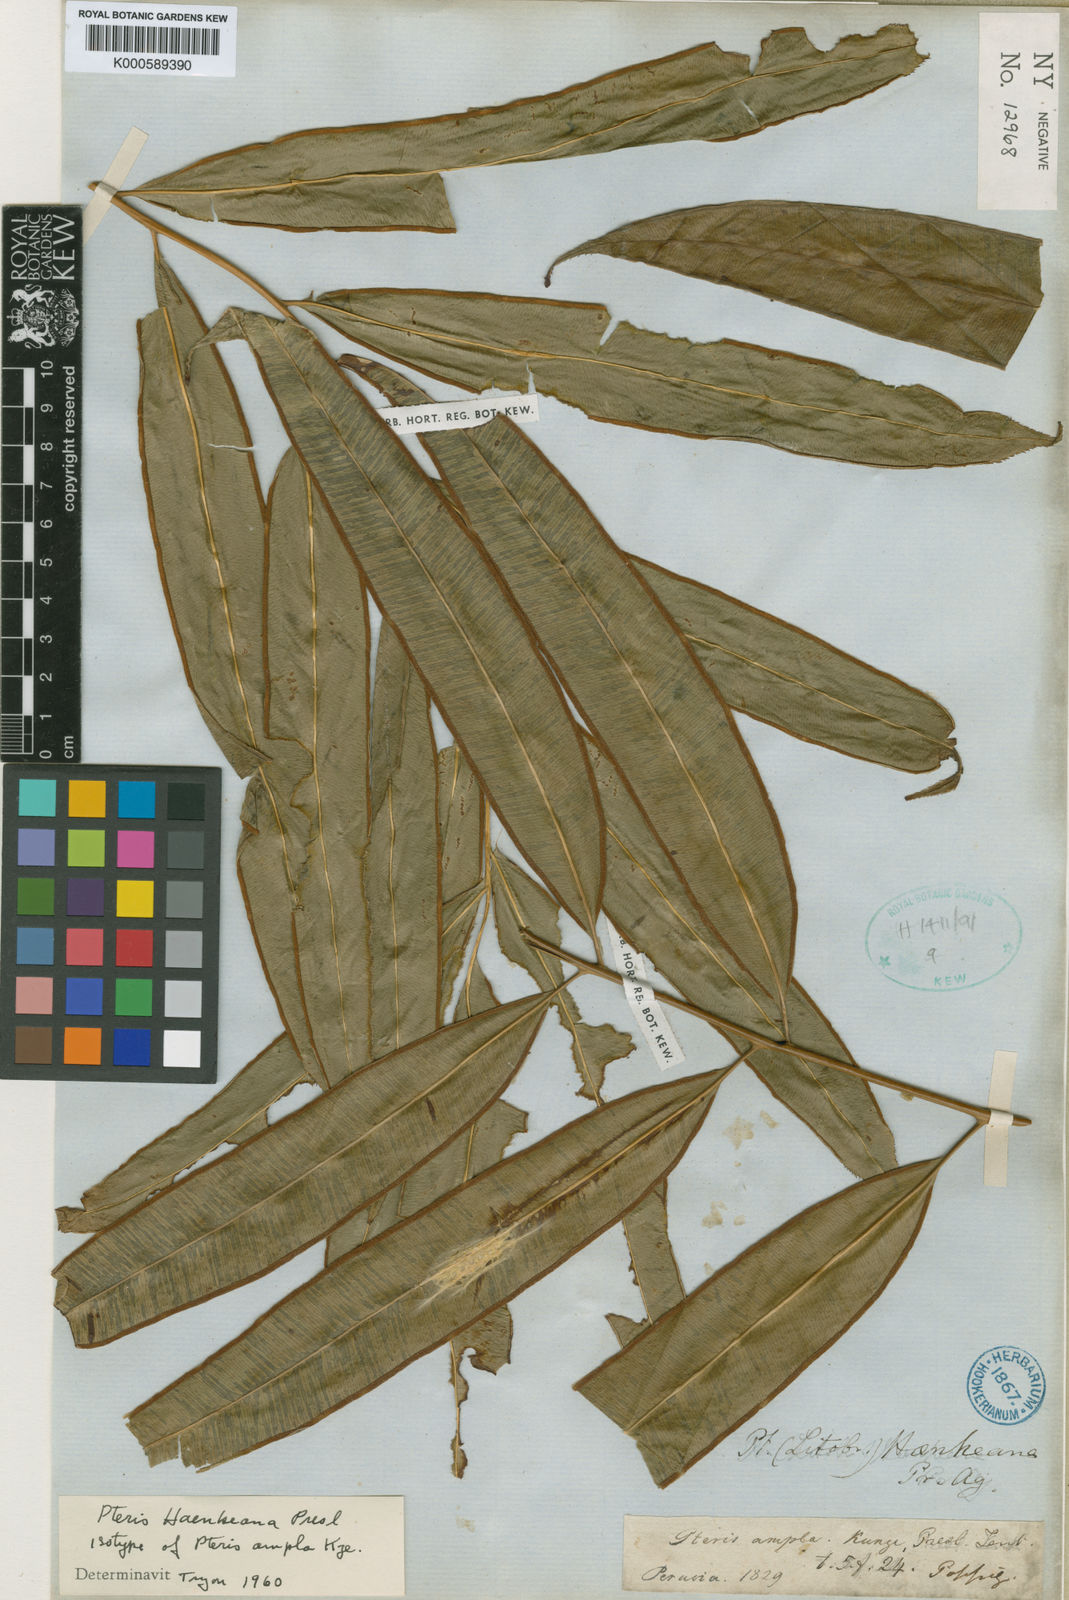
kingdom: Plantae
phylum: Tracheophyta
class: Polypodiopsida
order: Polypodiales
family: Pteridaceae
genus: Pteris
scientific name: Pteris haenkeana
